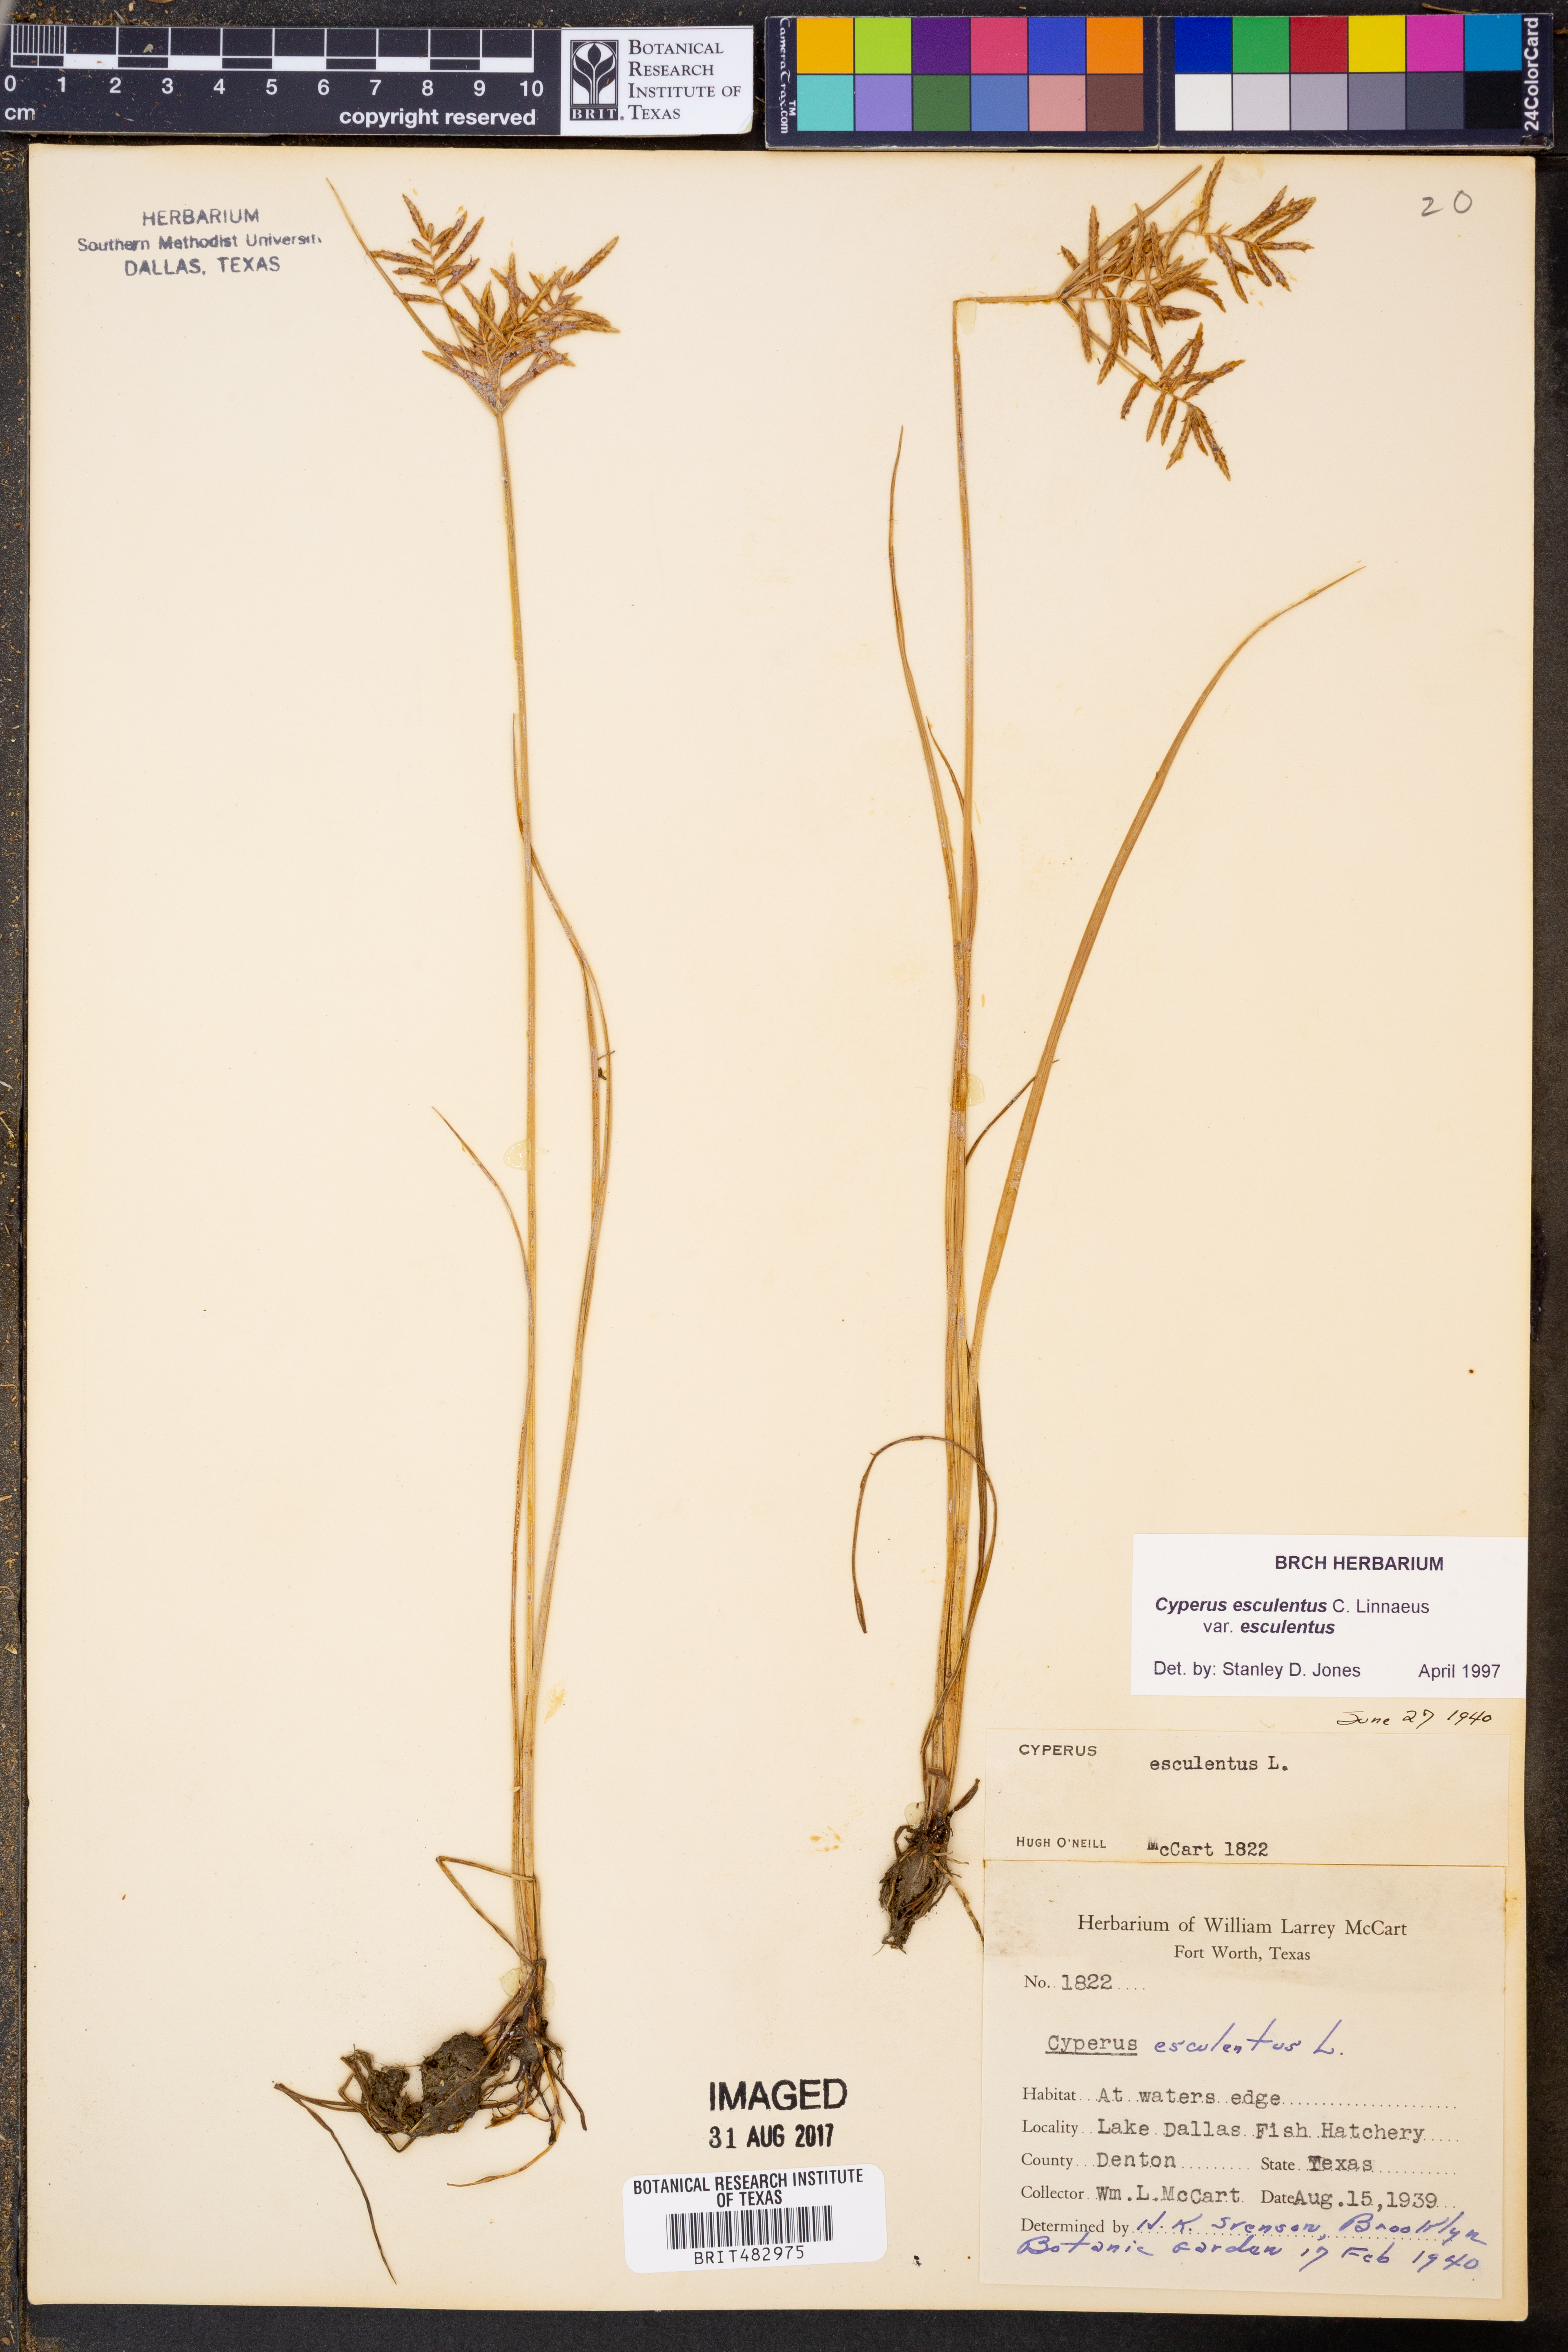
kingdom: Plantae
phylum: Tracheophyta
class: Liliopsida
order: Poales
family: Cyperaceae
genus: Cyperus
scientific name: Cyperus esculentus
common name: Yellow nutsedge
